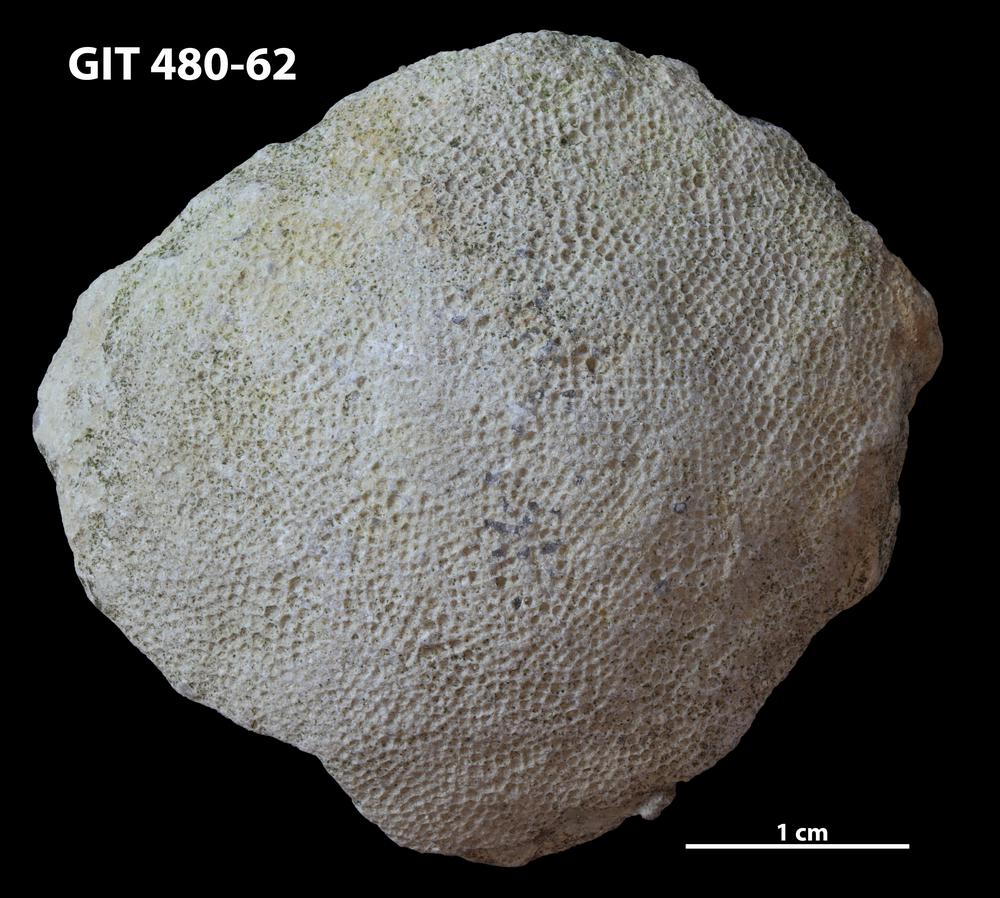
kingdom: Animalia
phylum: Bryozoa
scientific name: Bryozoa
